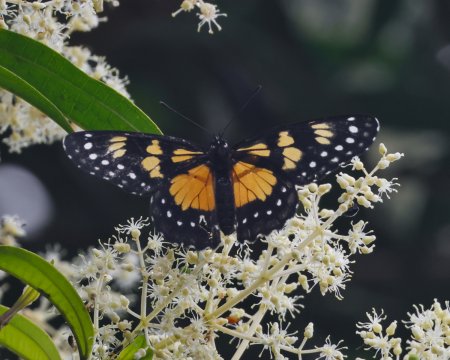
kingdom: Animalia
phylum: Arthropoda
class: Insecta
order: Lepidoptera
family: Nymphalidae
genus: Chlosyne
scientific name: Chlosyne narva
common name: Narva Checkerspot
